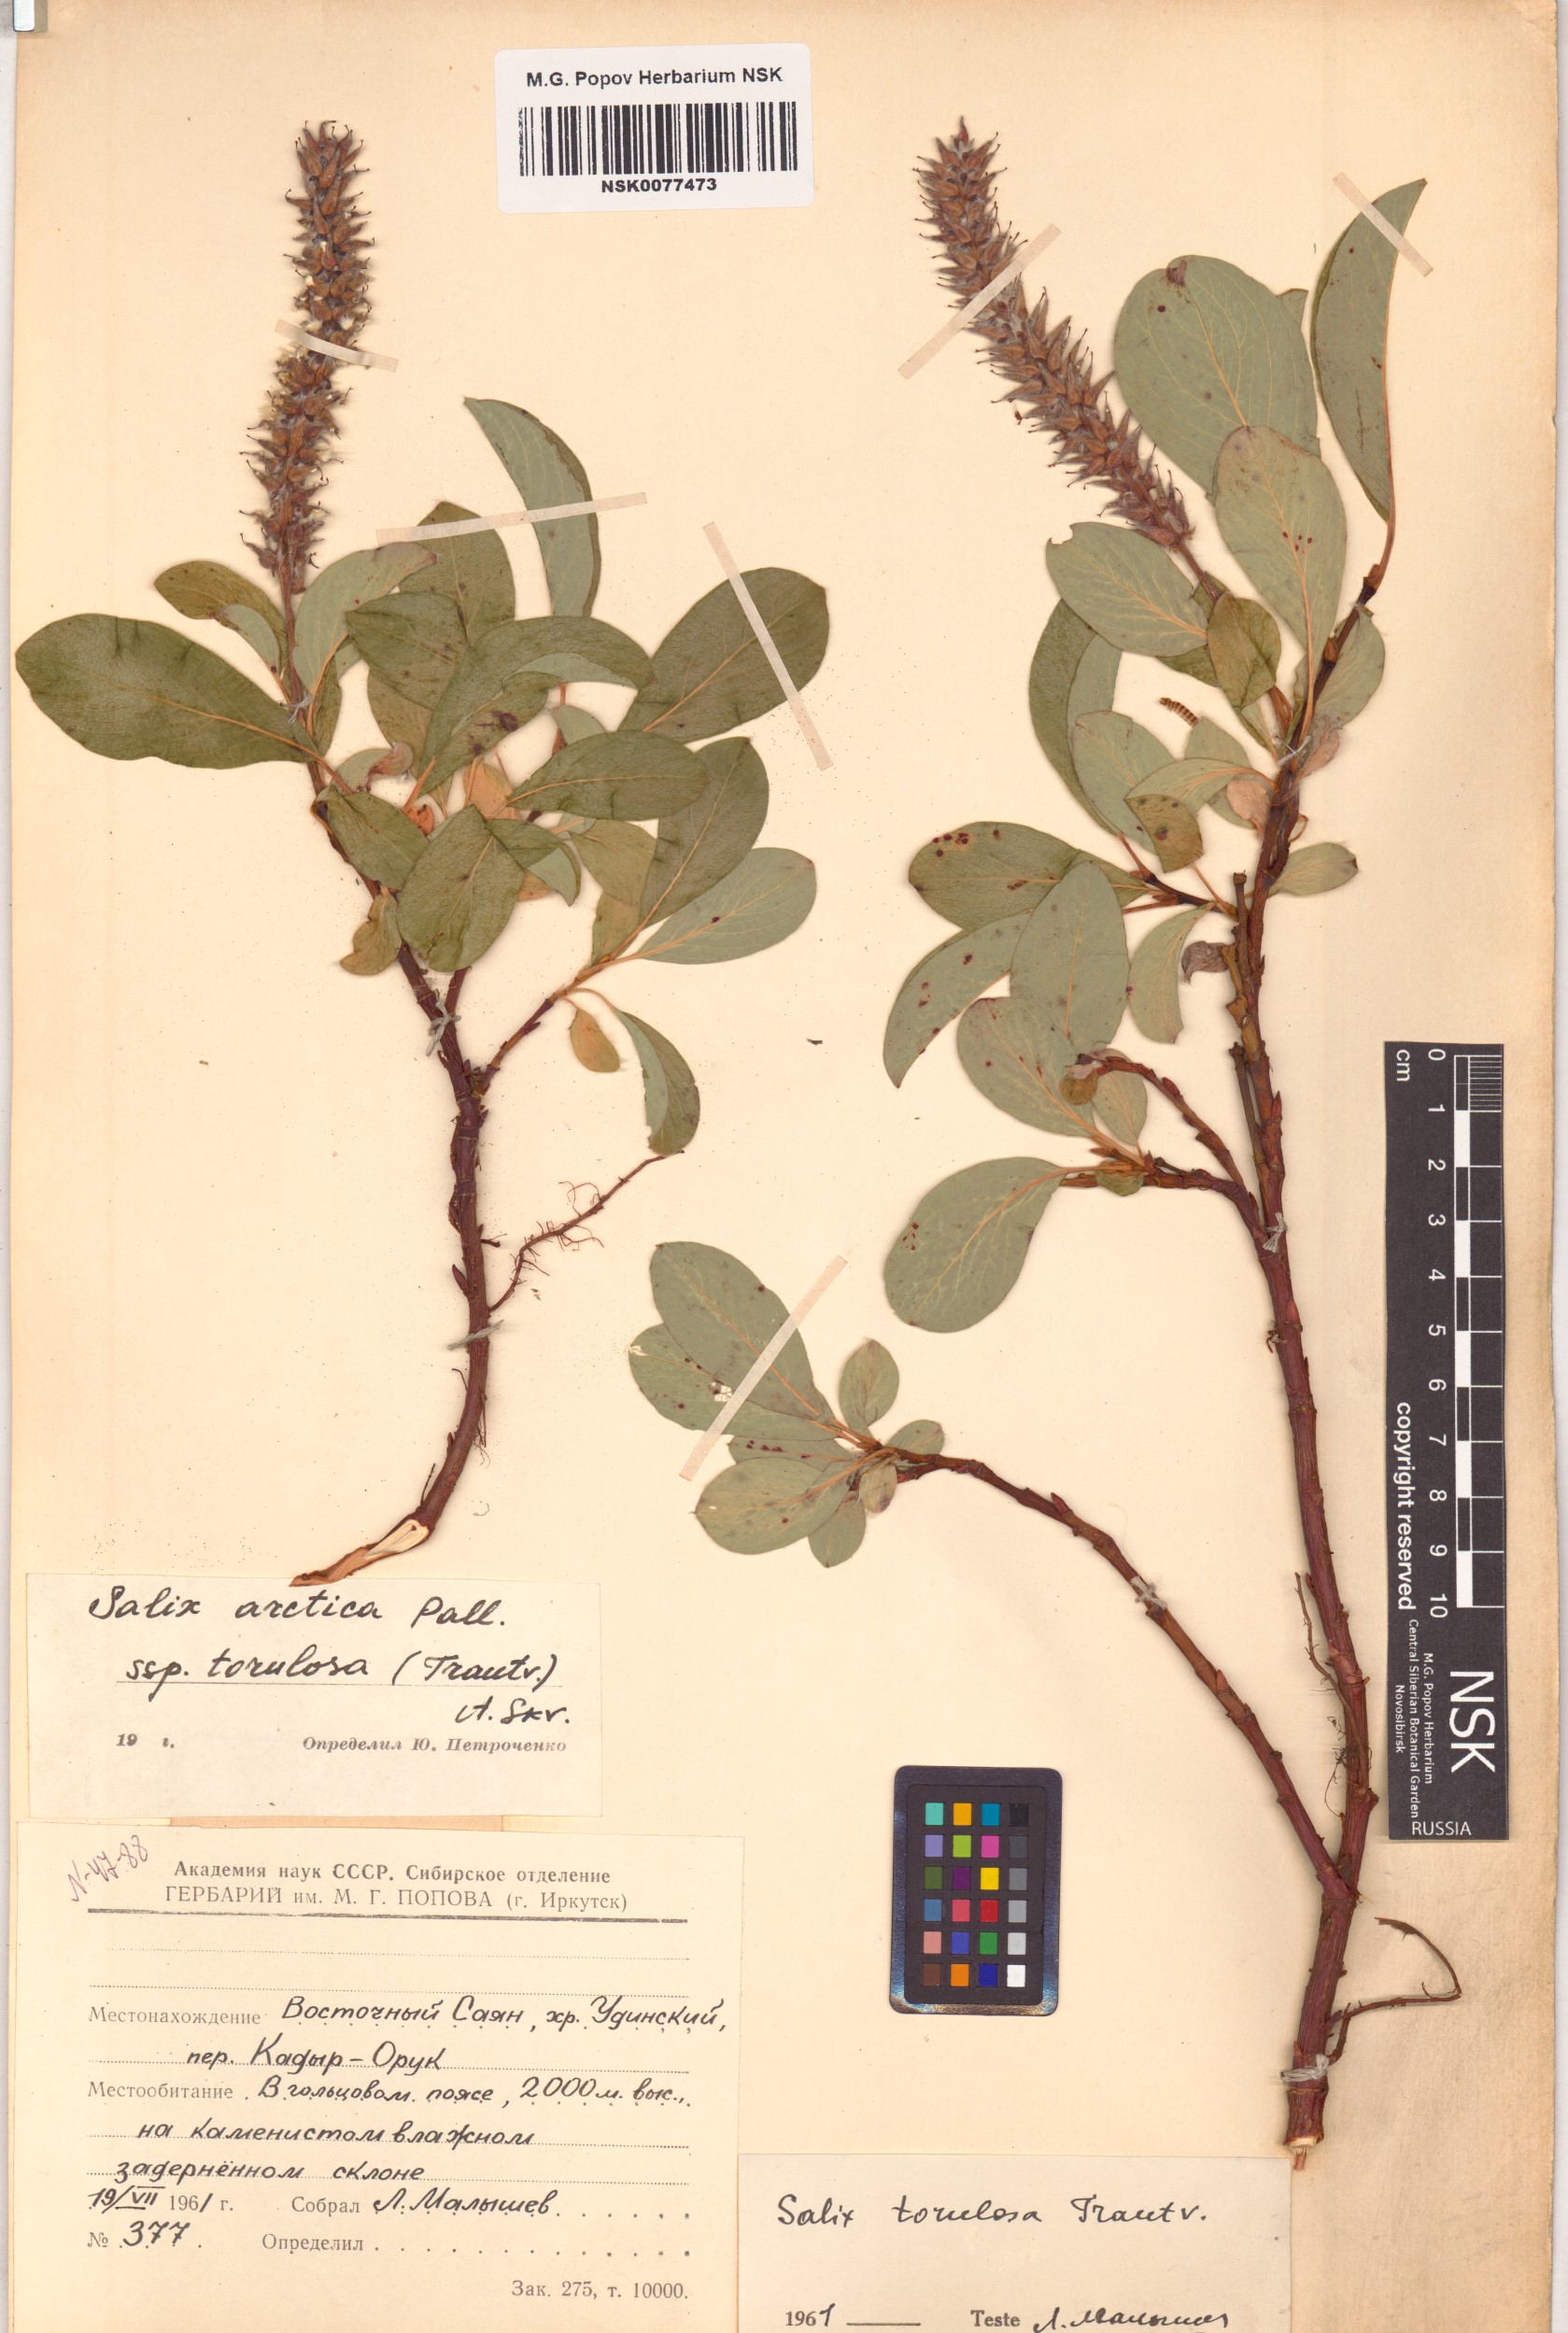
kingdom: Plantae
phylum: Tracheophyta
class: Magnoliopsida
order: Malpighiales
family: Salicaceae
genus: Salix
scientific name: Salix arctica
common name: Arctic willow
